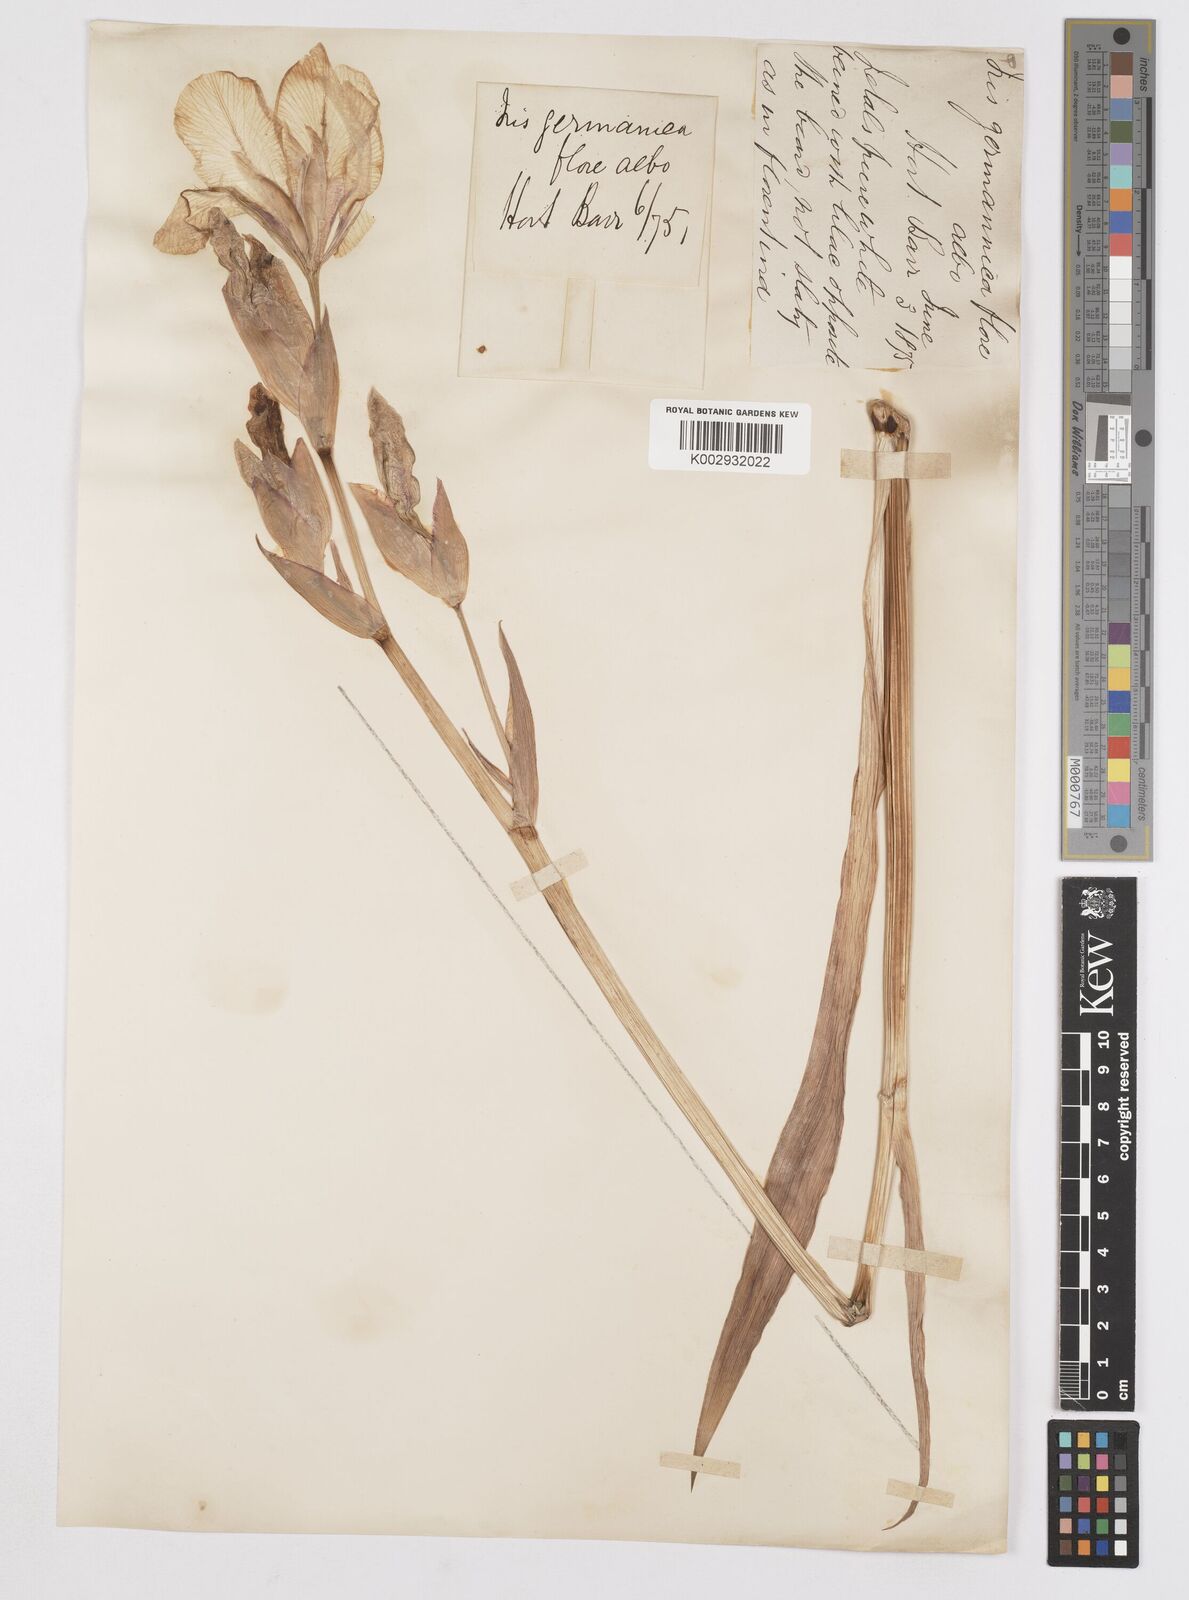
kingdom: Plantae
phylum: Tracheophyta
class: Liliopsida
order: Asparagales
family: Iridaceae
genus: Iris
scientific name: Iris germanica
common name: German iris
